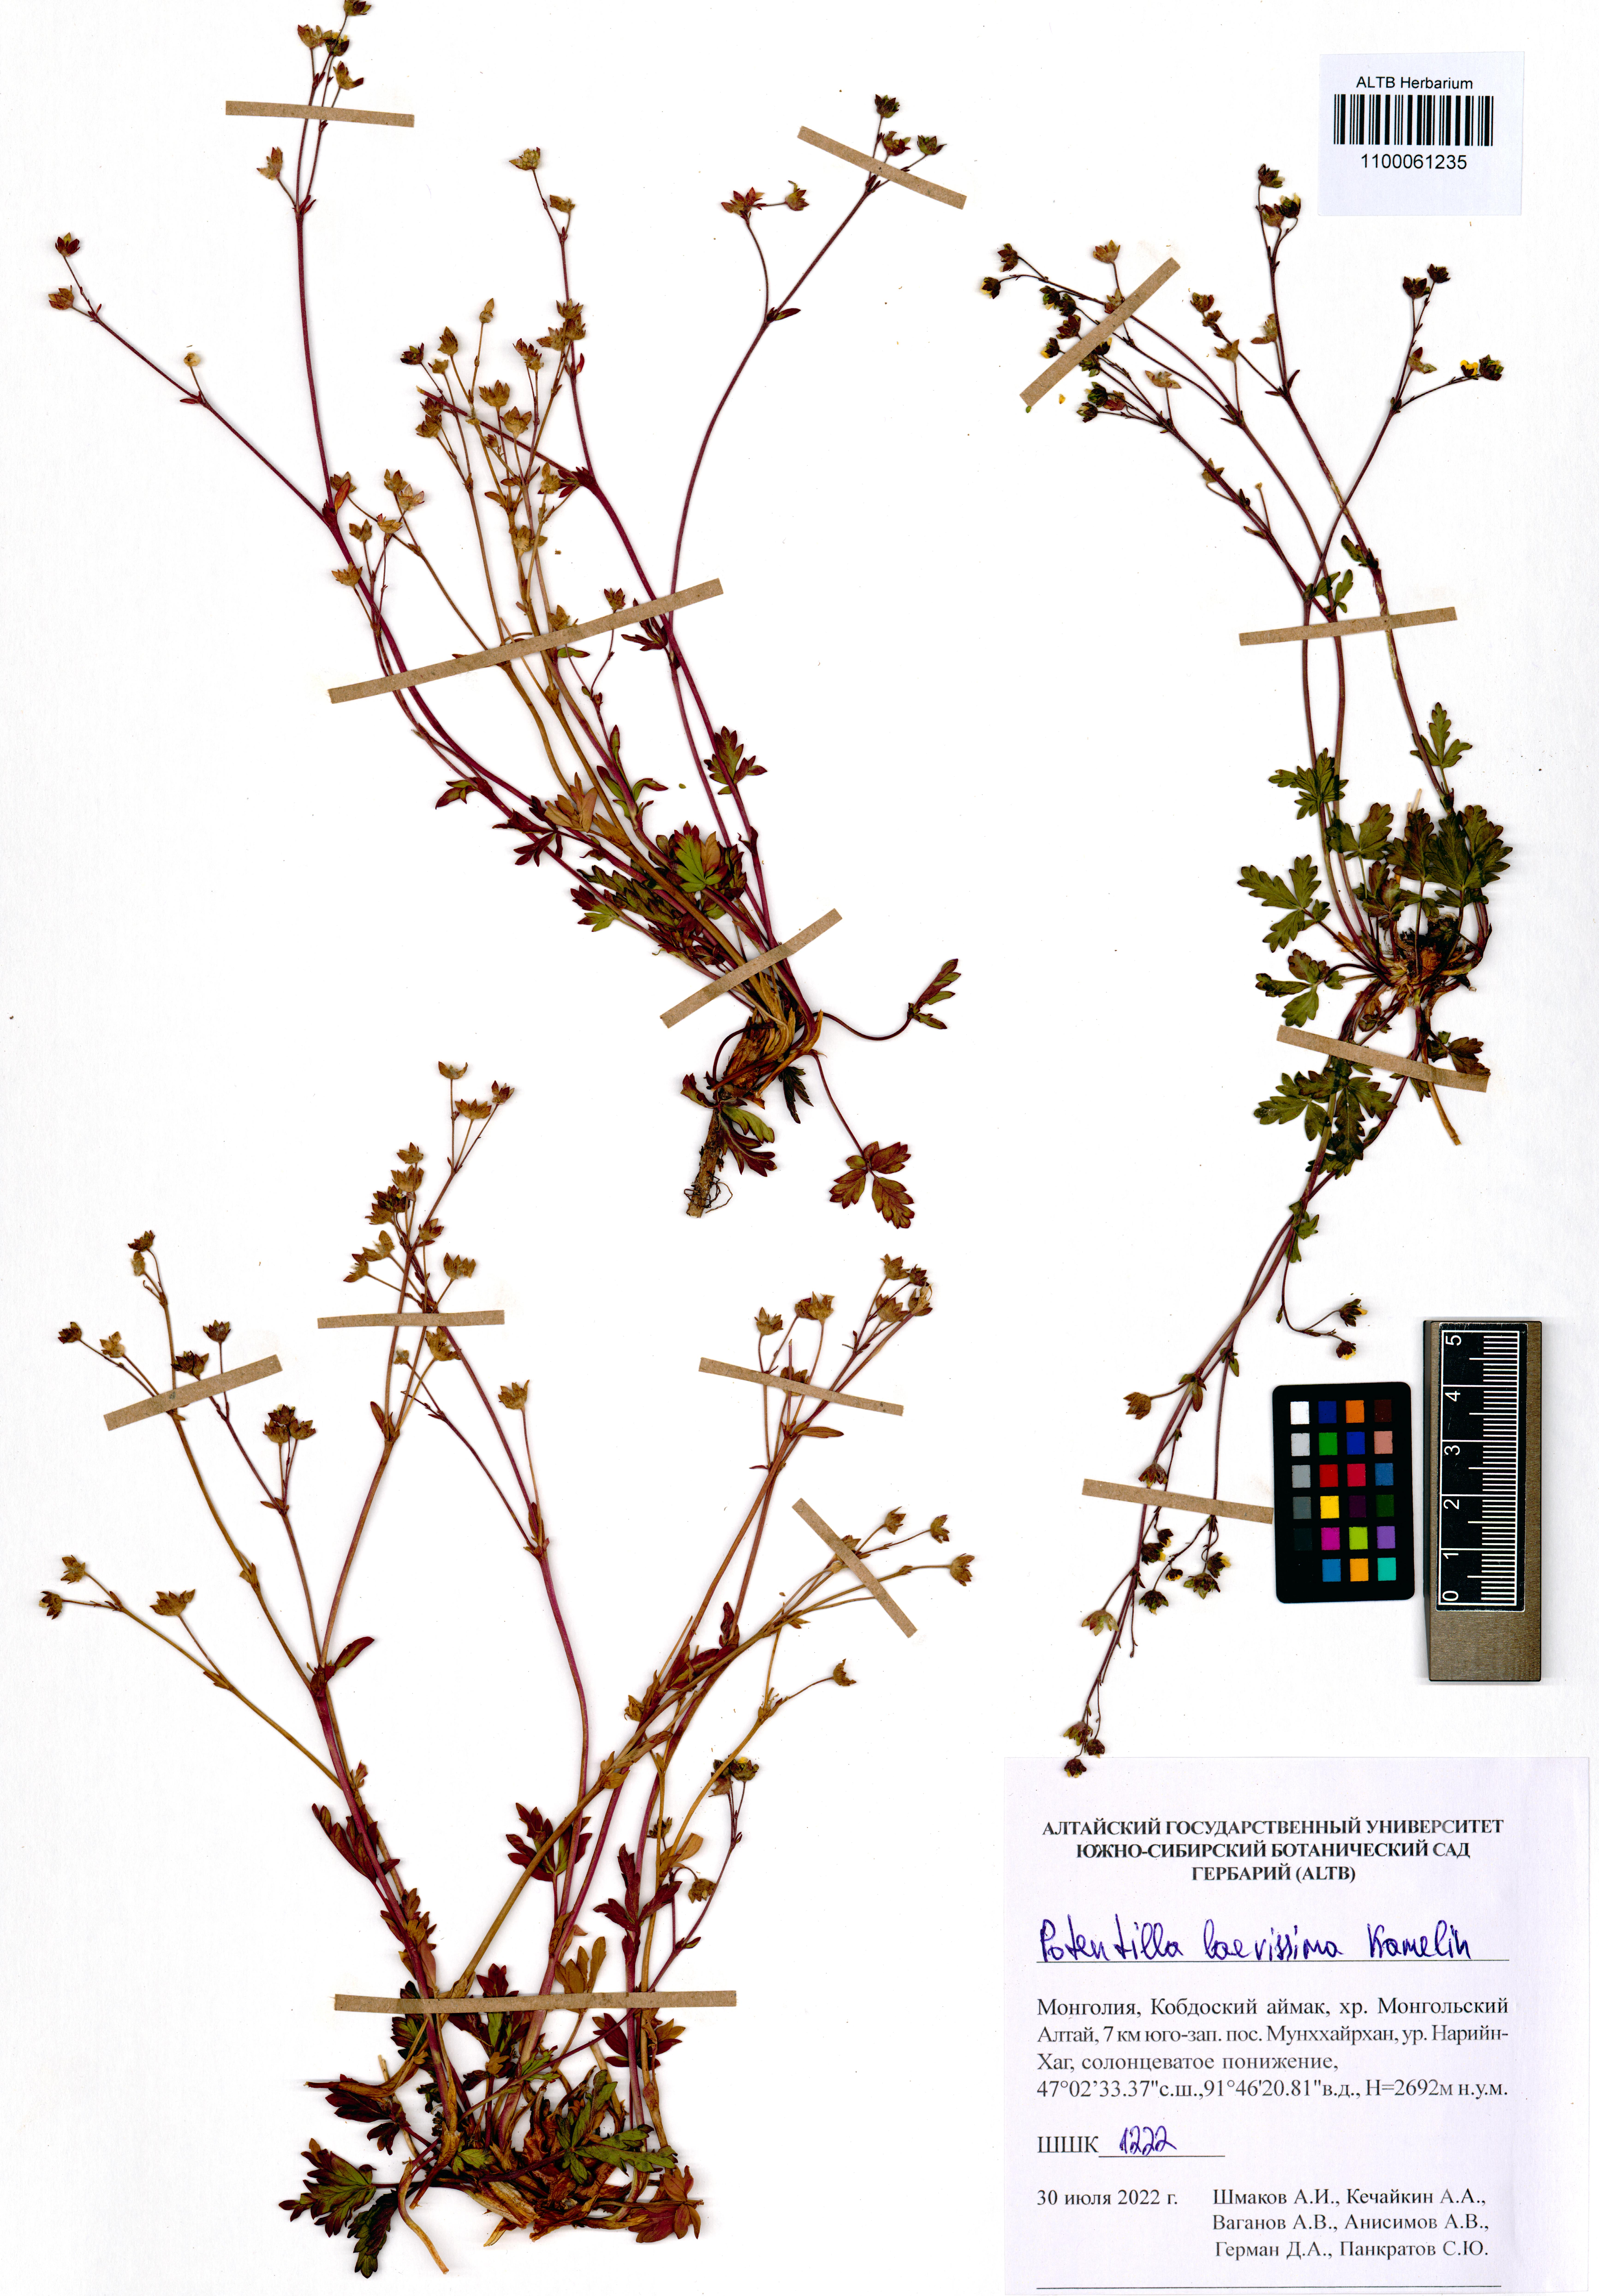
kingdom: Plantae
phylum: Tracheophyta
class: Magnoliopsida
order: Rosales
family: Rosaceae
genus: Potentilla
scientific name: Potentilla laevissima
